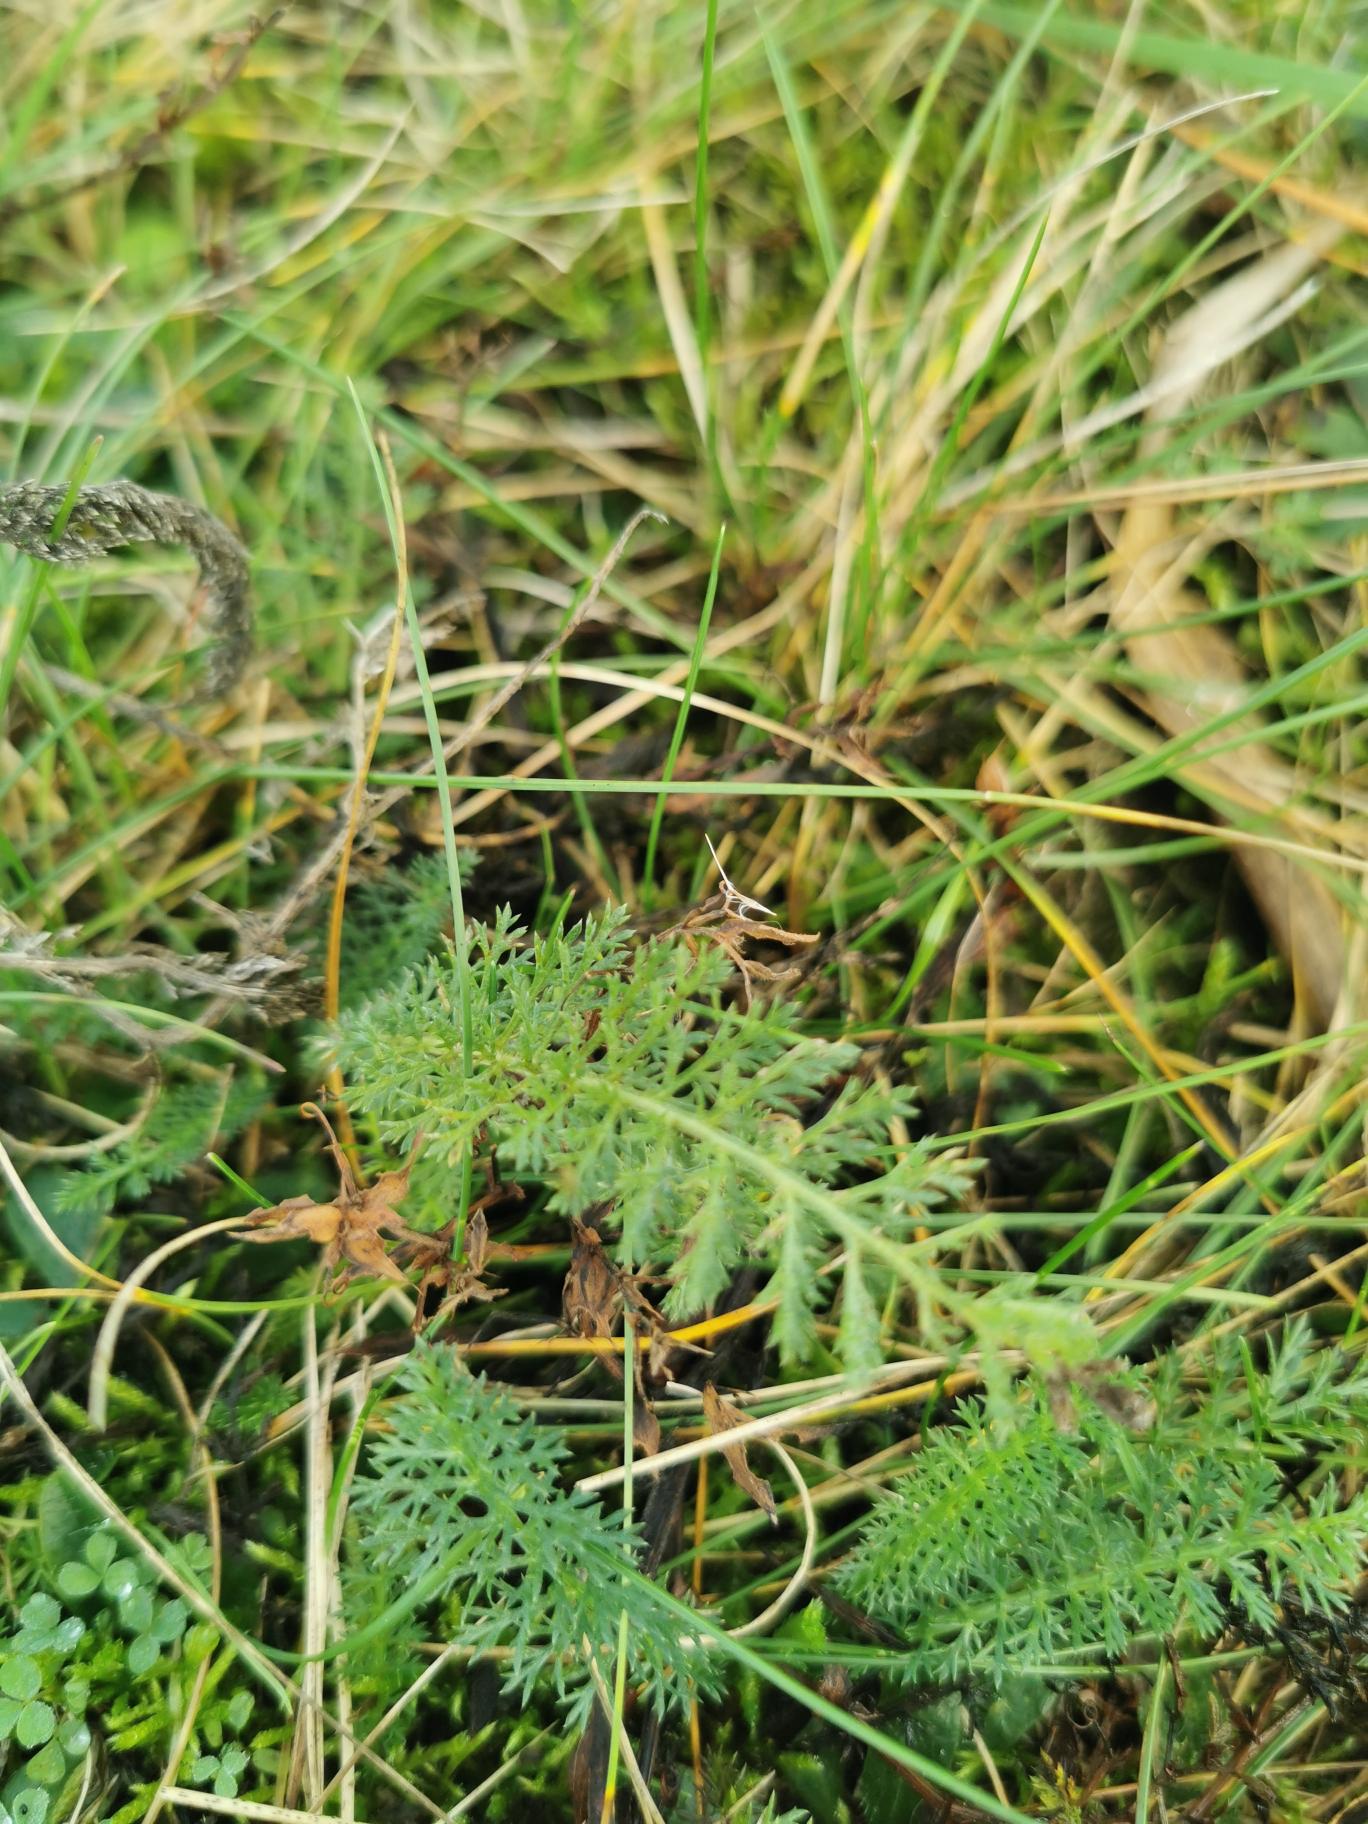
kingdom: Plantae
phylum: Tracheophyta
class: Magnoliopsida
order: Asterales
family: Asteraceae
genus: Achillea
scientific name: Achillea millefolium
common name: Almindelig røllike
